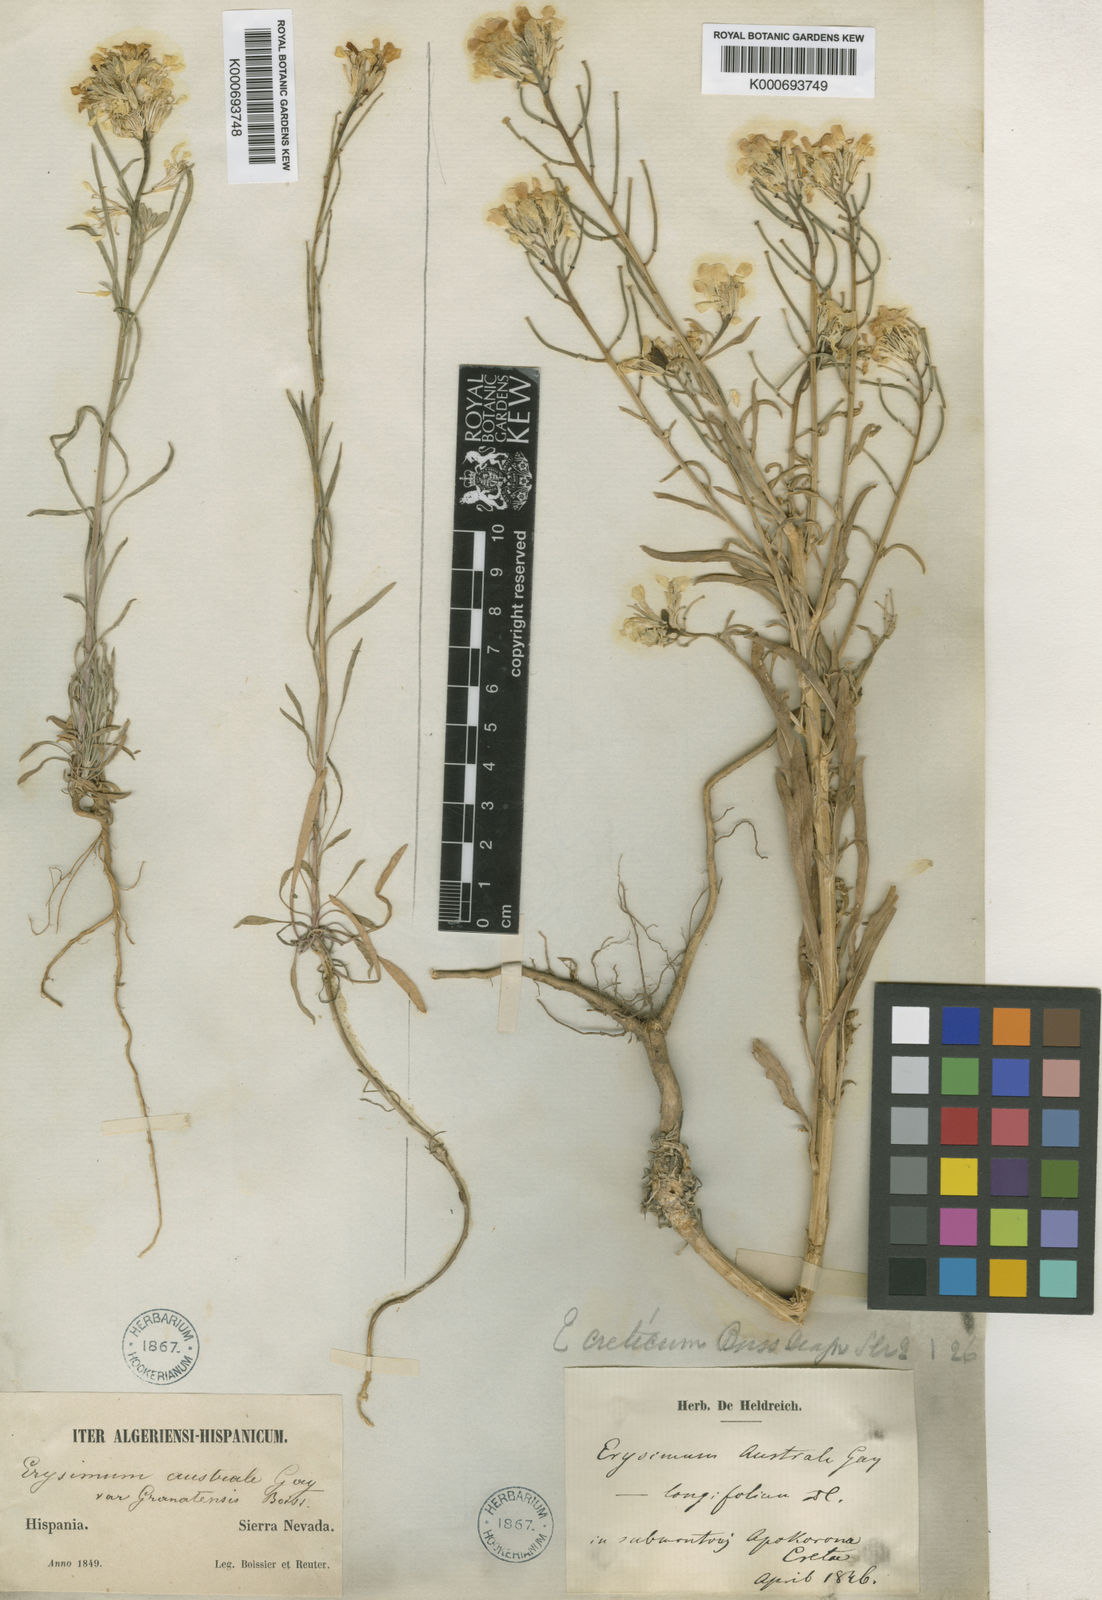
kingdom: Plantae
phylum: Tracheophyta
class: Magnoliopsida
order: Brassicales
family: Brassicaceae
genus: Erysimum
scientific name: Erysimum creticum
